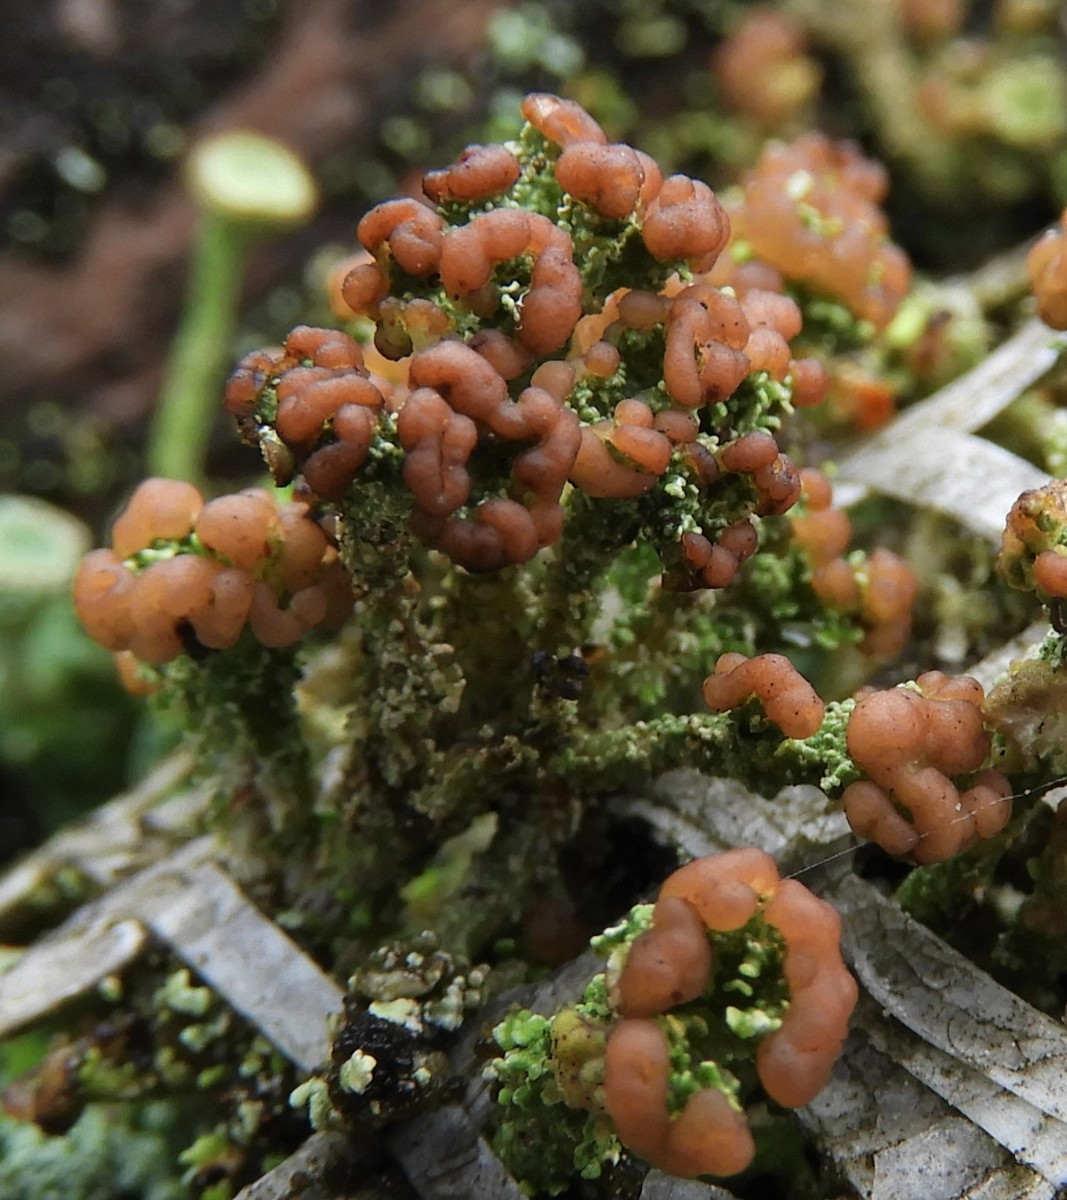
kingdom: Fungi
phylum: Ascomycota
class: Lecanoromycetes
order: Lecanorales
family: Cladoniaceae
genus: Cladonia
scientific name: Cladonia ramulosa
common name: kliddet bægerlav
